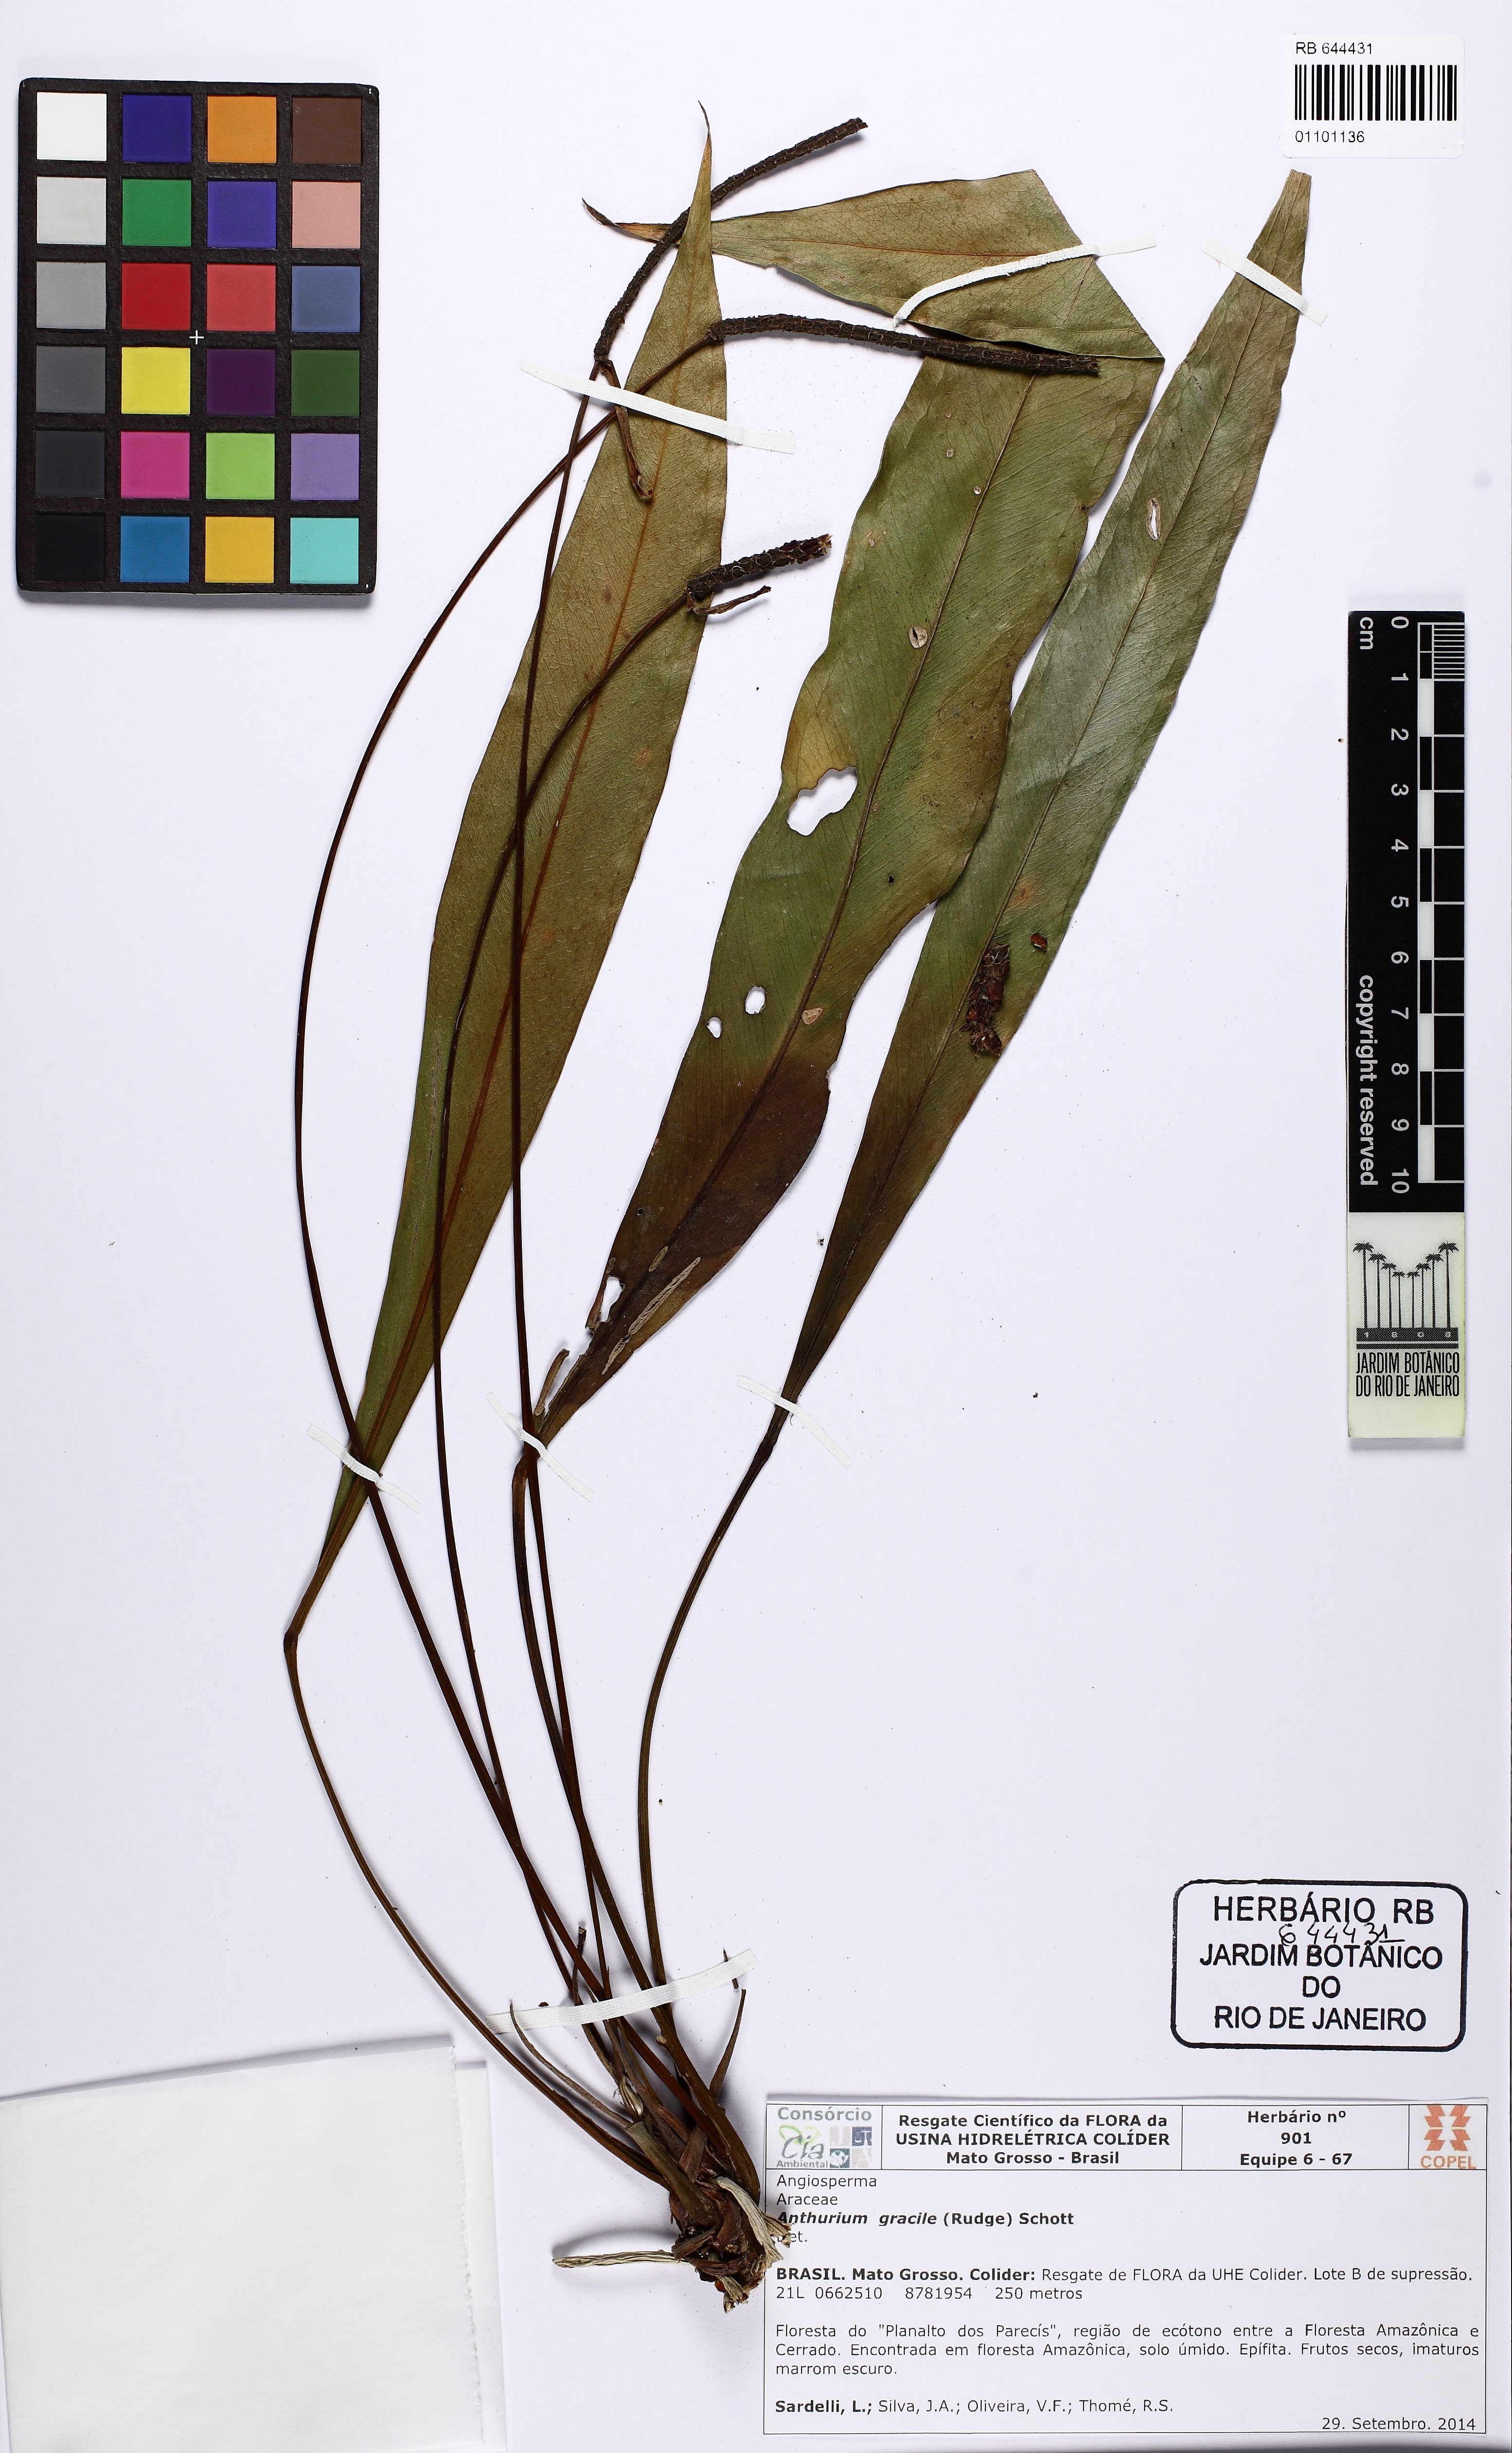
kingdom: Plantae
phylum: Tracheophyta
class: Liliopsida
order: Alismatales
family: Araceae
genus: Anthurium
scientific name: Anthurium gracile
